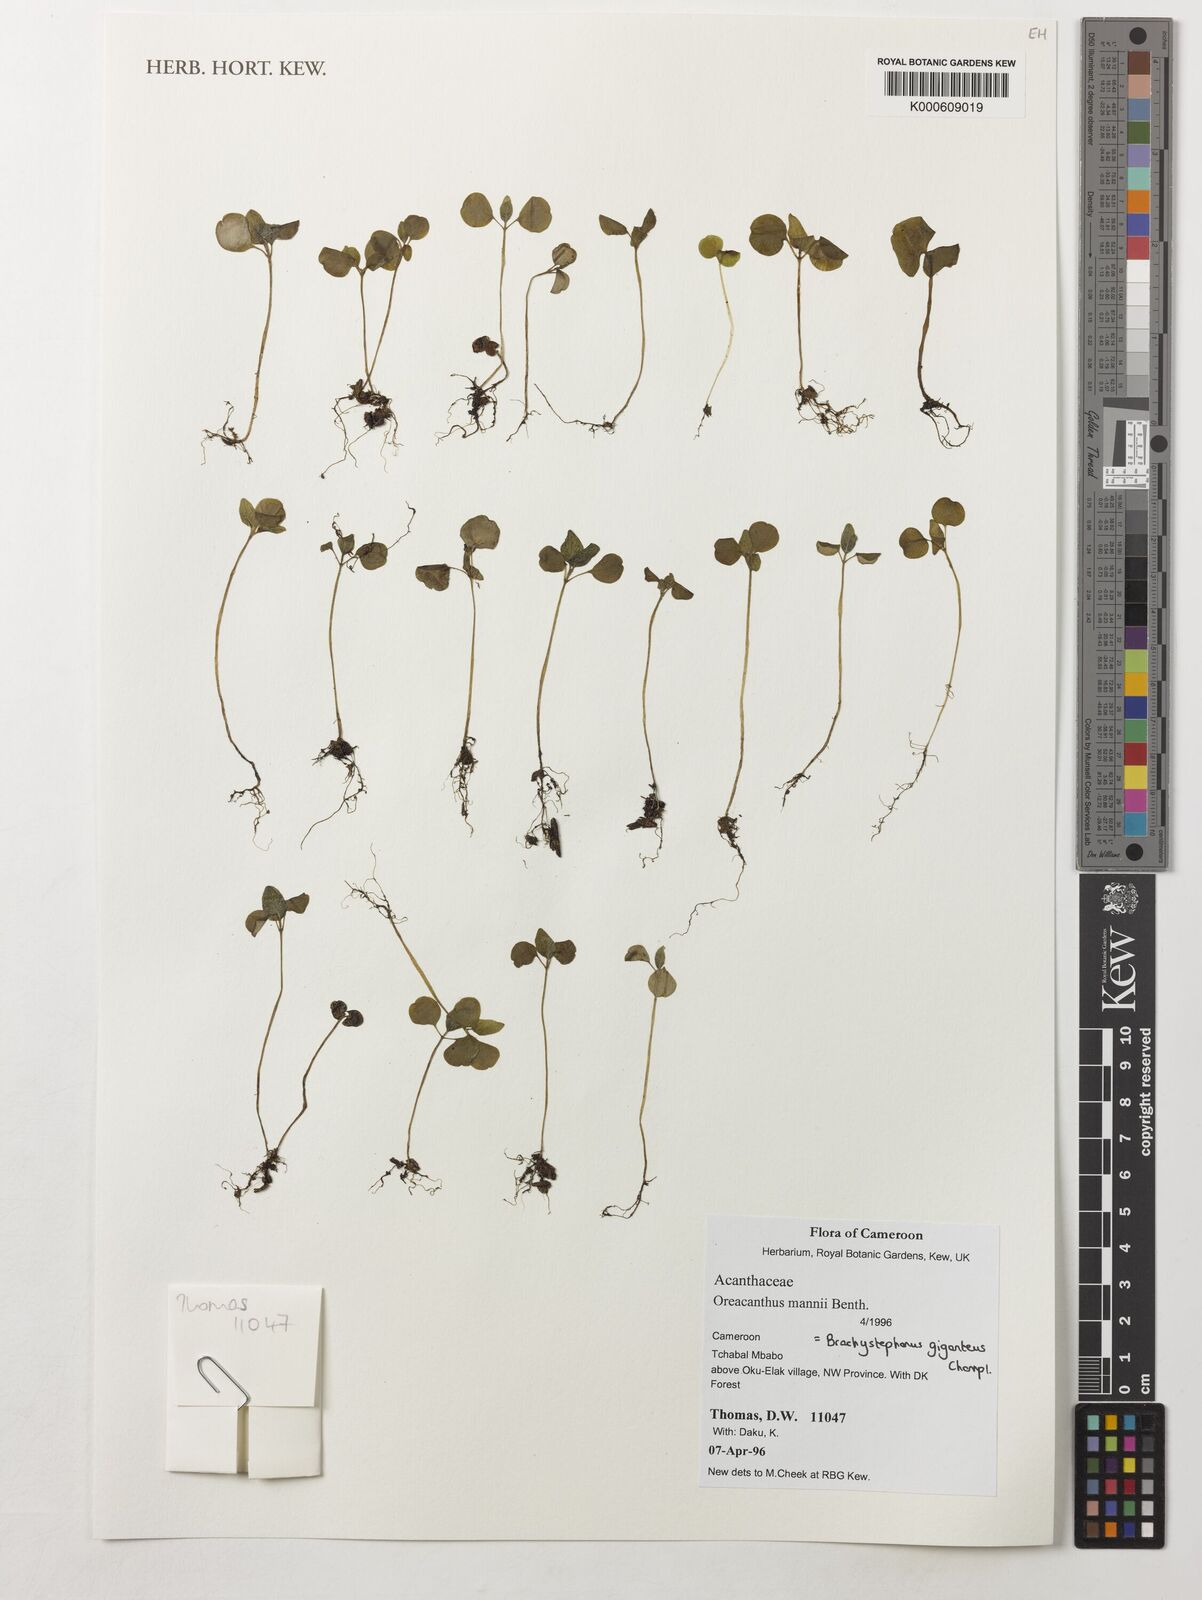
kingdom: Plantae
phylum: Tracheophyta
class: Magnoliopsida
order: Lamiales
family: Acanthaceae
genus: Brachystephanus
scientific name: Brachystephanus giganteus
